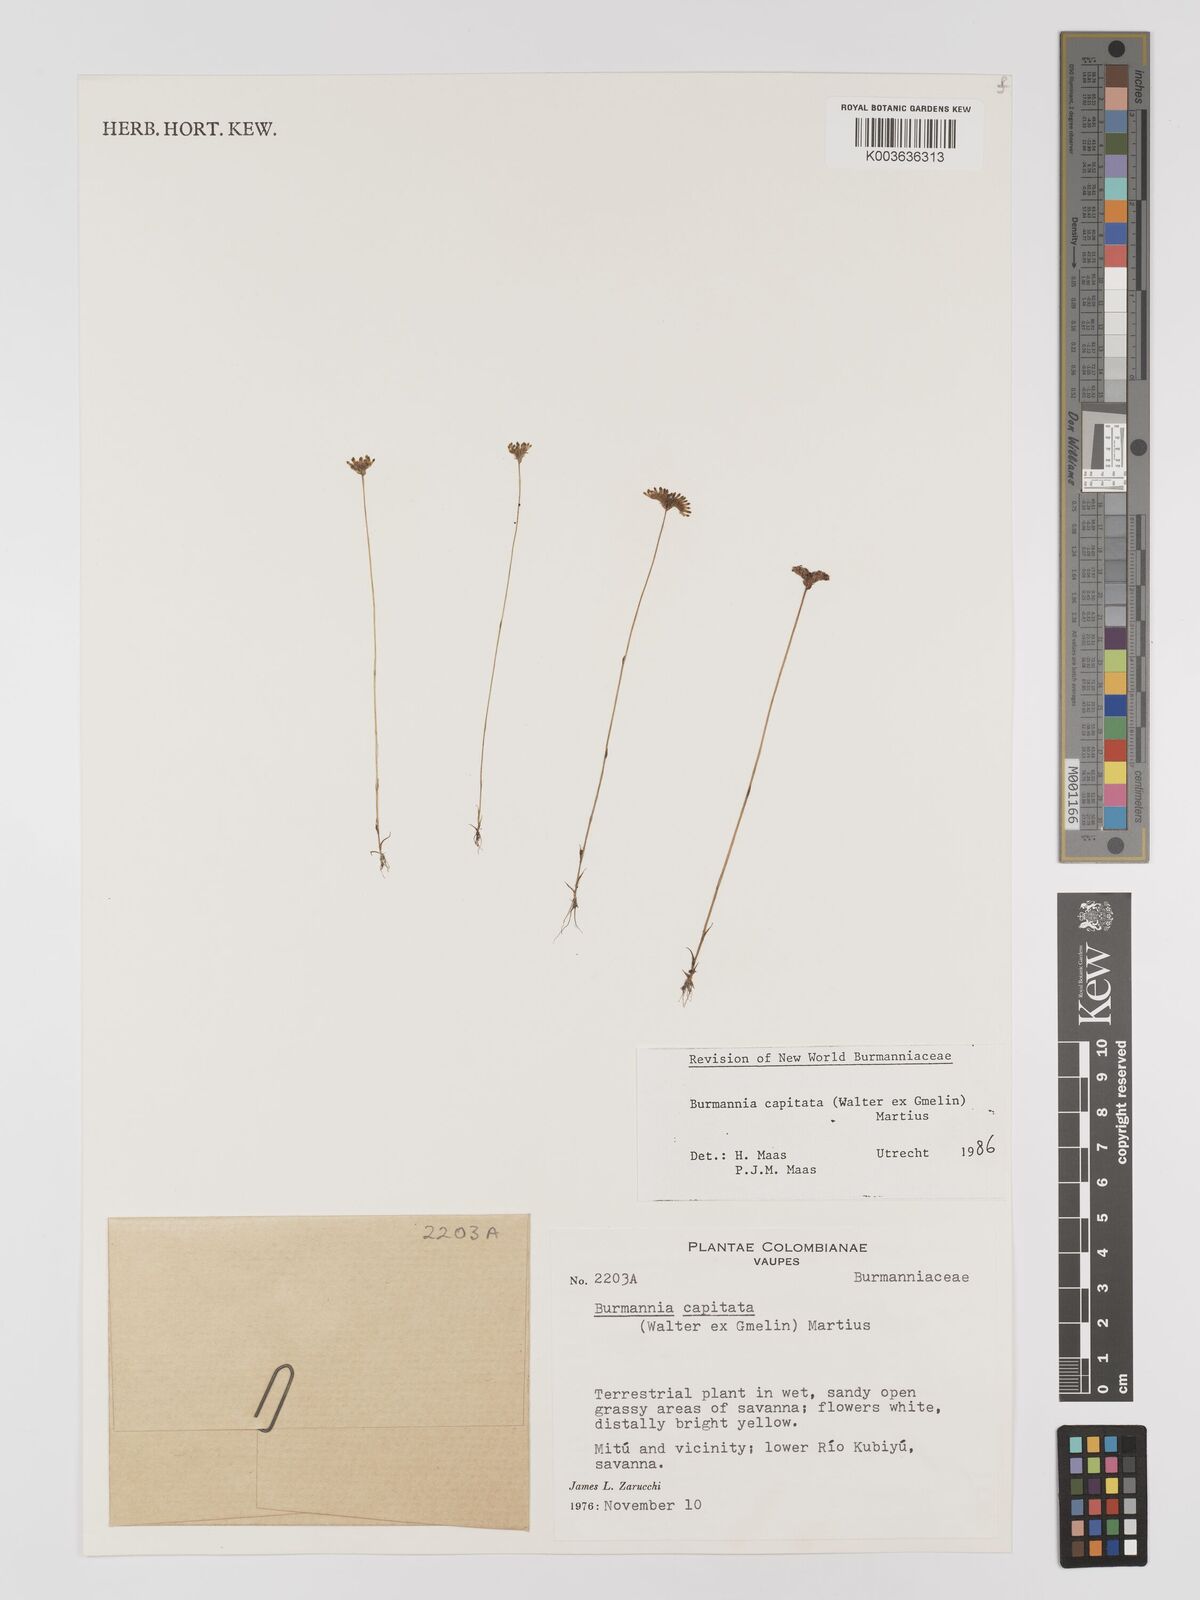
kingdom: Plantae
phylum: Tracheophyta
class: Liliopsida
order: Dioscoreales
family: Burmanniaceae
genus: Burmannia
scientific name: Burmannia capitata
